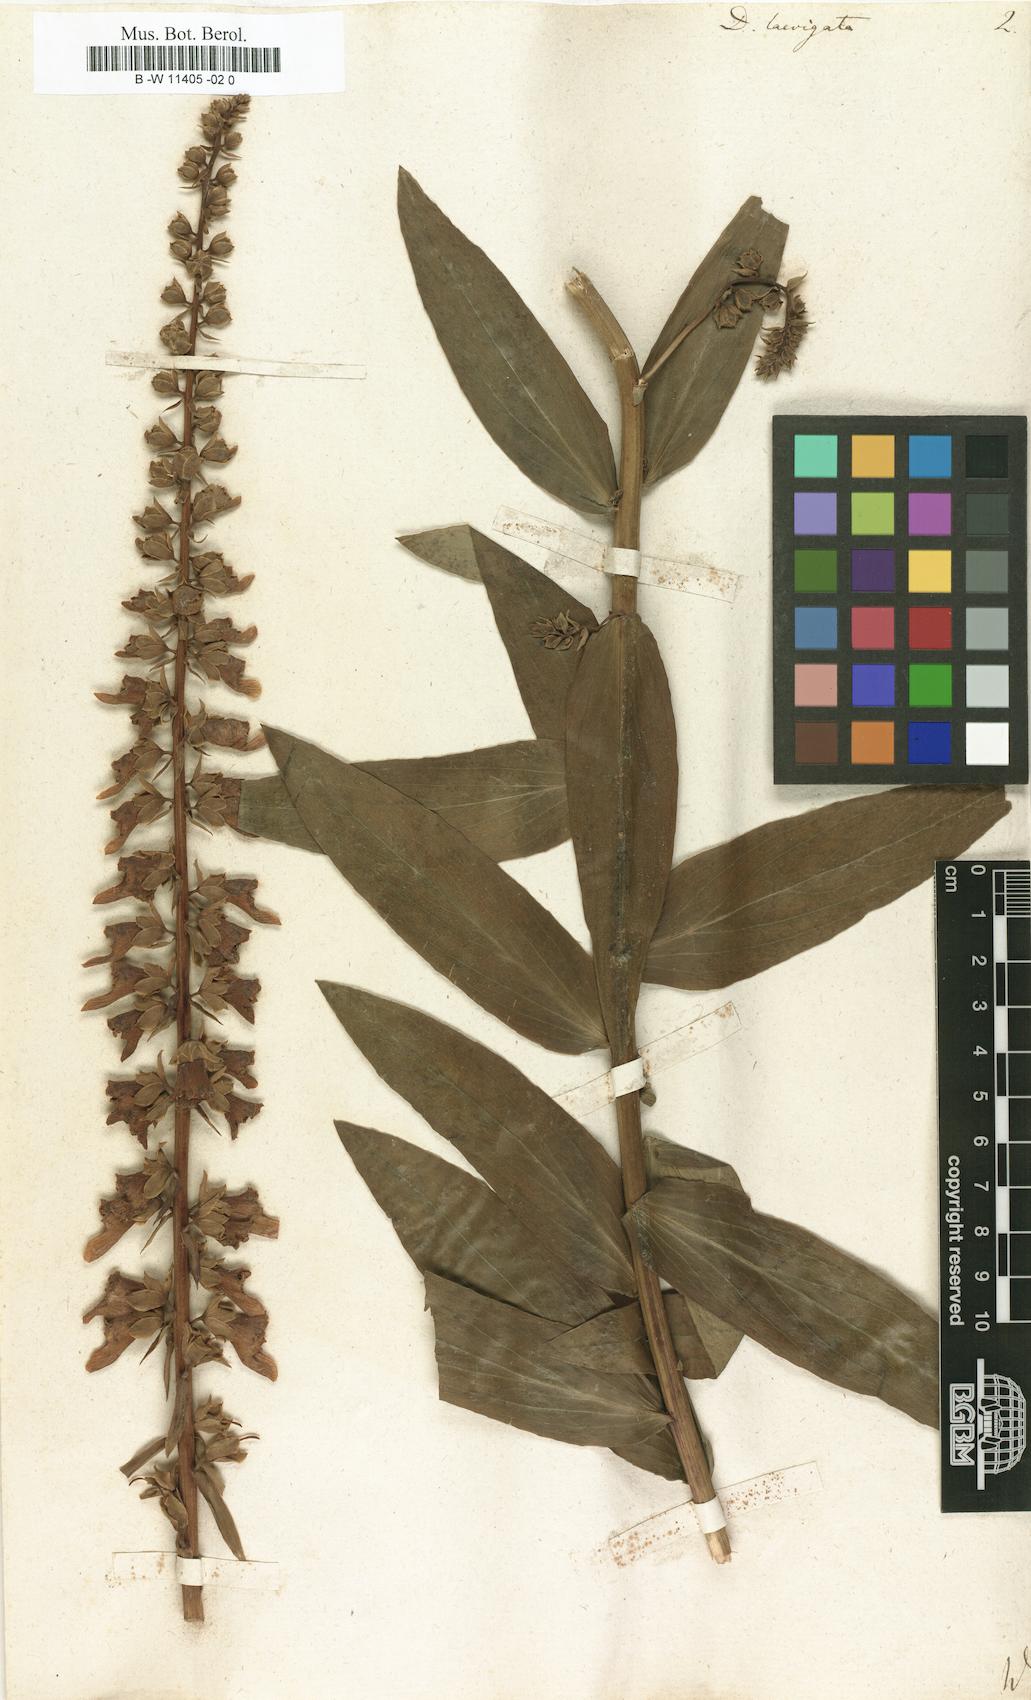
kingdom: Plantae
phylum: Tracheophyta
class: Magnoliopsida
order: Lamiales
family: Plantaginaceae
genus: Digitalis
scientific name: Digitalis laevigata
